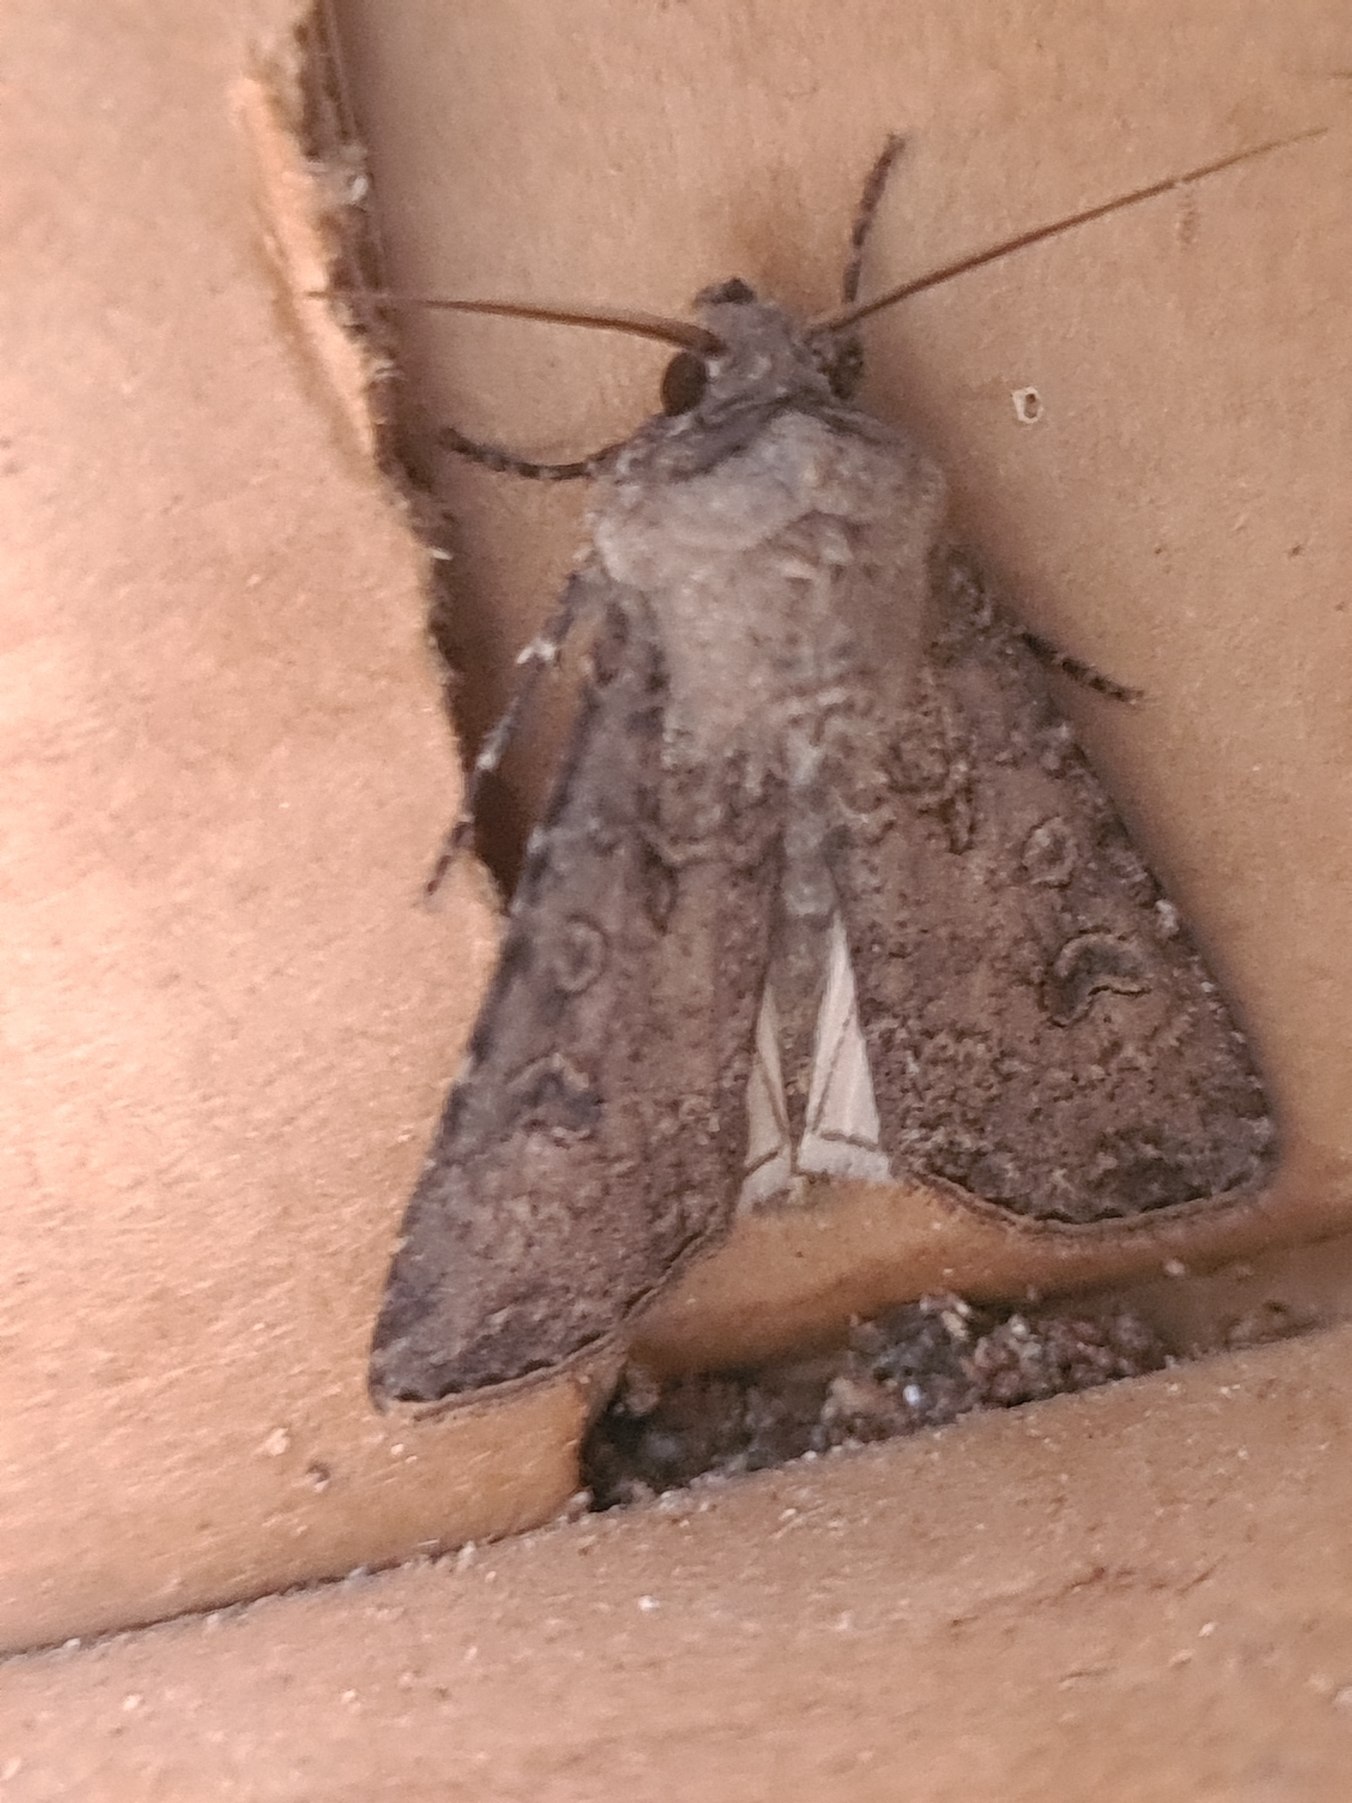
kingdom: Animalia
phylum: Arthropoda
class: Insecta
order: Lepidoptera
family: Noctuidae
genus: Agrotis
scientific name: Agrotis segetum
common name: Agerugle
